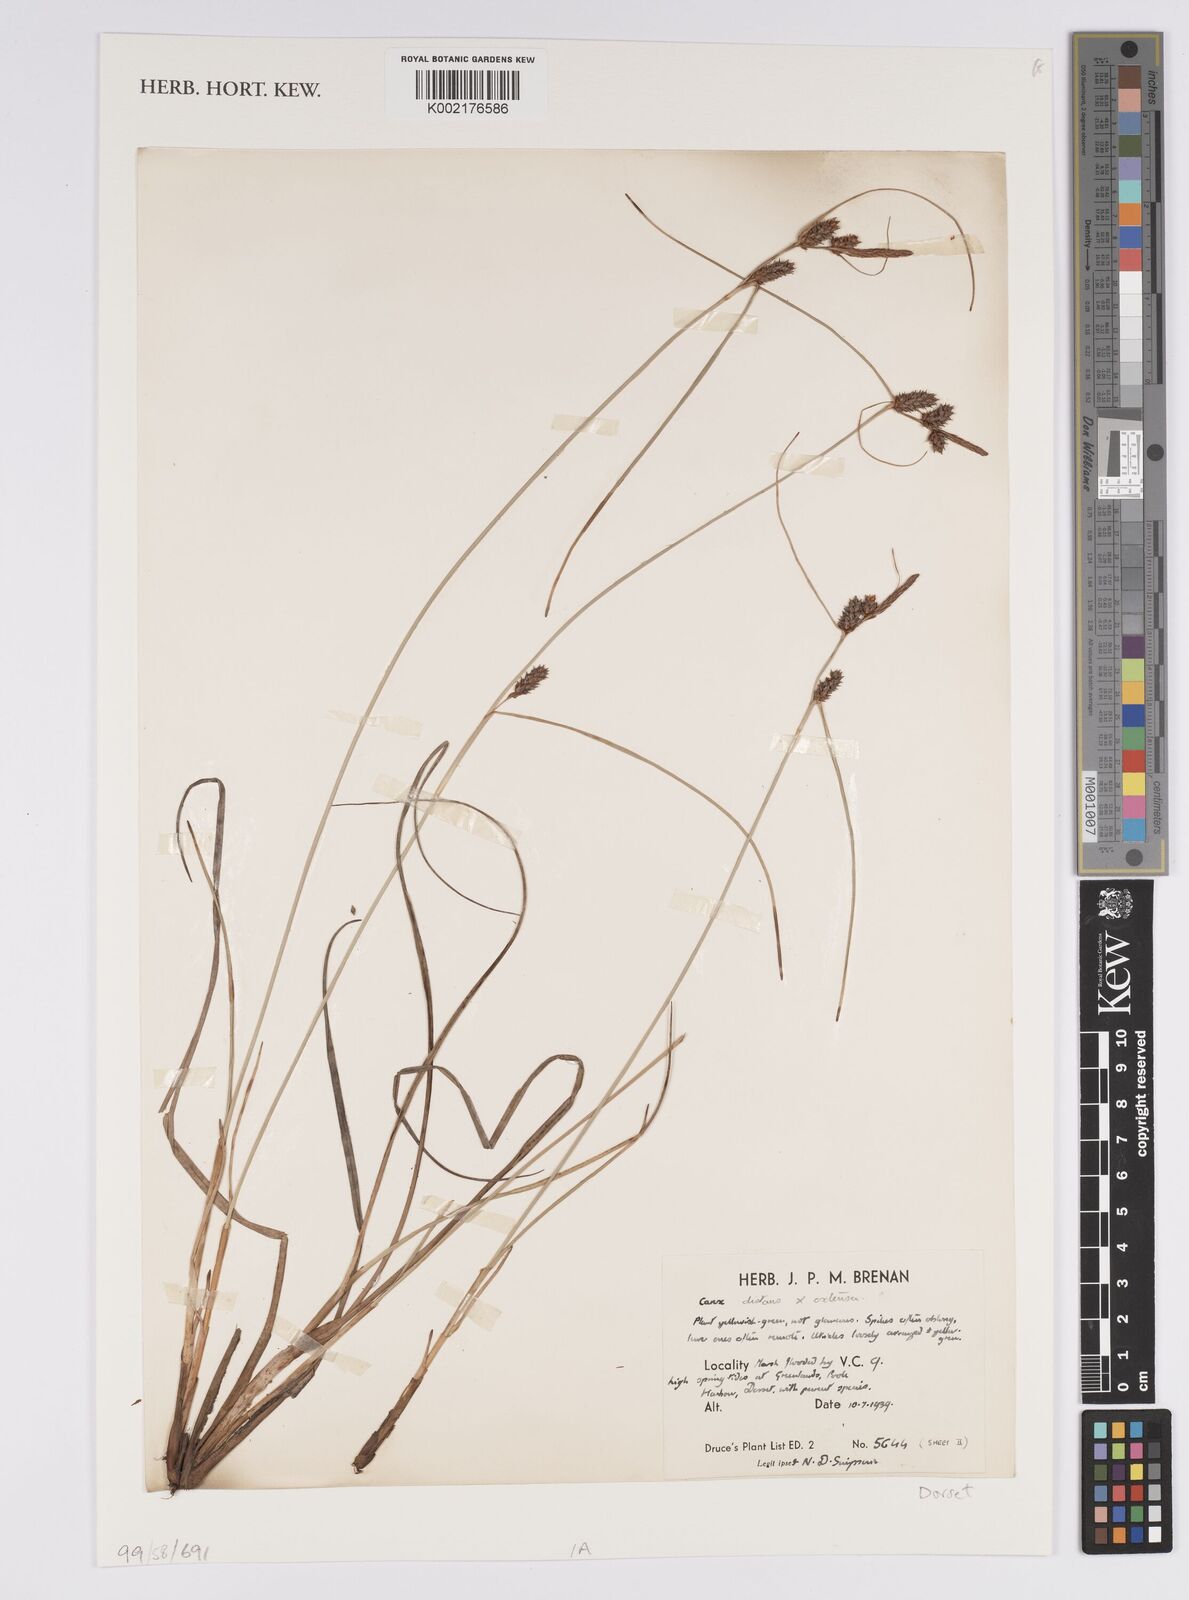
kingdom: Plantae
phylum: Tracheophyta
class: Liliopsida
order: Poales
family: Cyperaceae
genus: Carex
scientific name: Carex distans
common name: Distant sedge
